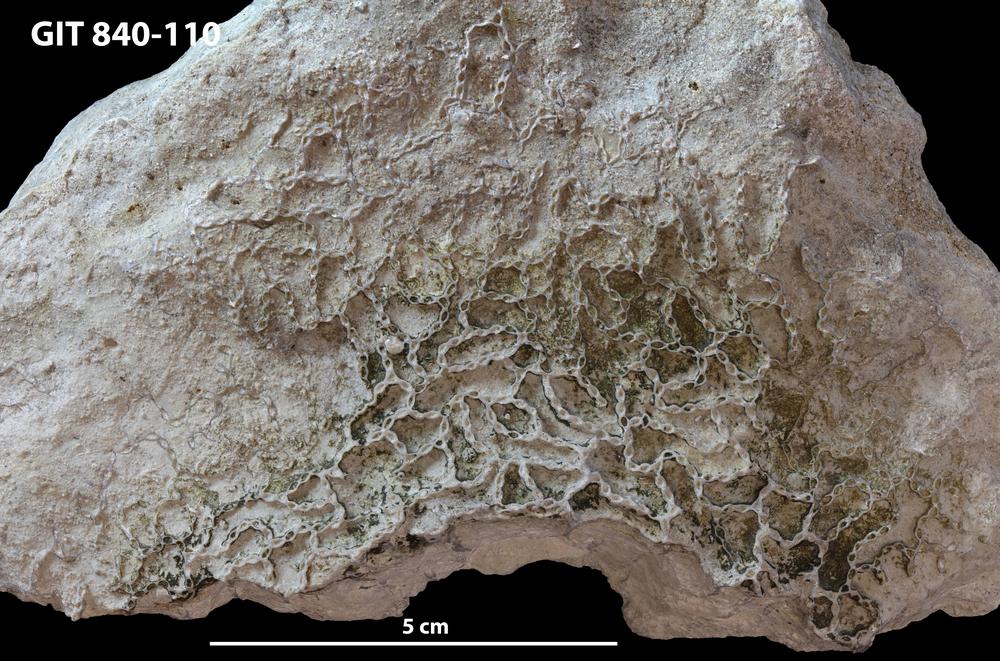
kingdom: Animalia
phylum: Cnidaria
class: Anthozoa
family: Cateniporidae
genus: Catenipora
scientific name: Catenipora
